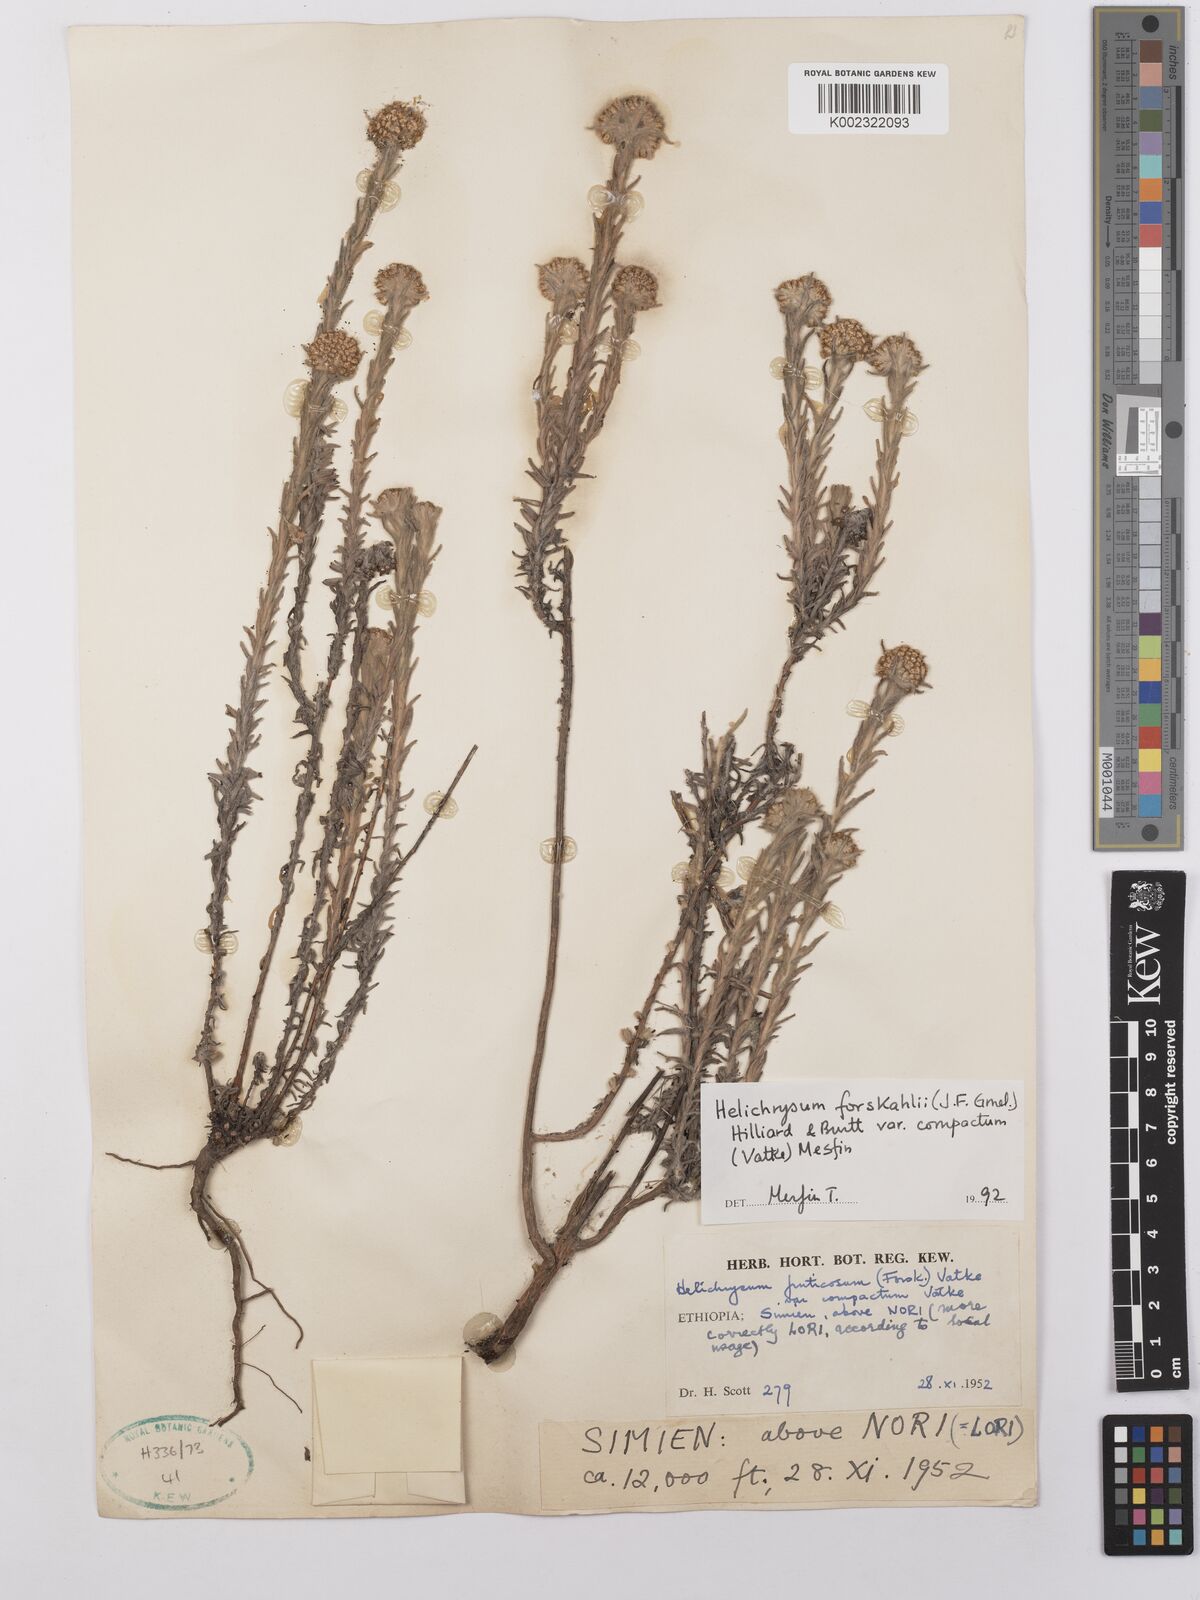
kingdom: Plantae
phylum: Tracheophyta
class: Magnoliopsida
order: Asterales
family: Asteraceae
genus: Helichrysum
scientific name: Helichrysum forskahlii
